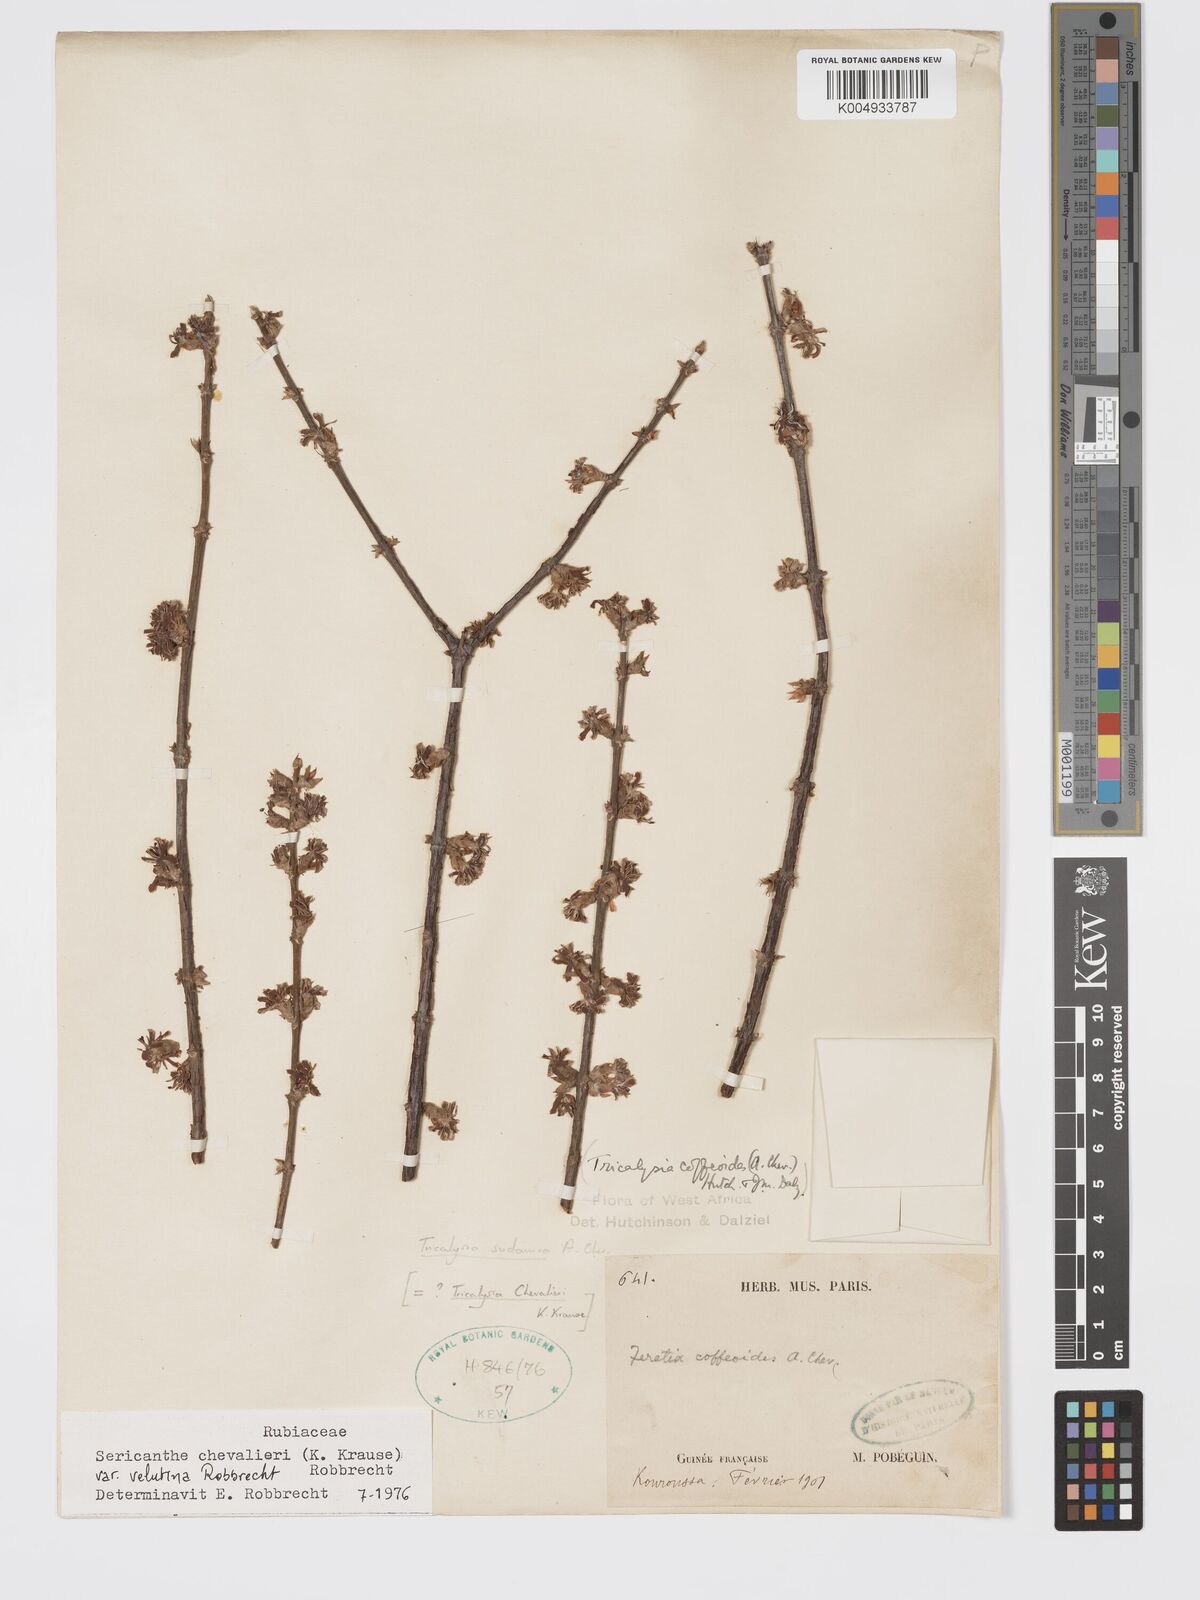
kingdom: Plantae
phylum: Tracheophyta
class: Magnoliopsida
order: Gentianales
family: Rubiaceae
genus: Sericanthe
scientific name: Sericanthe chevalieri
